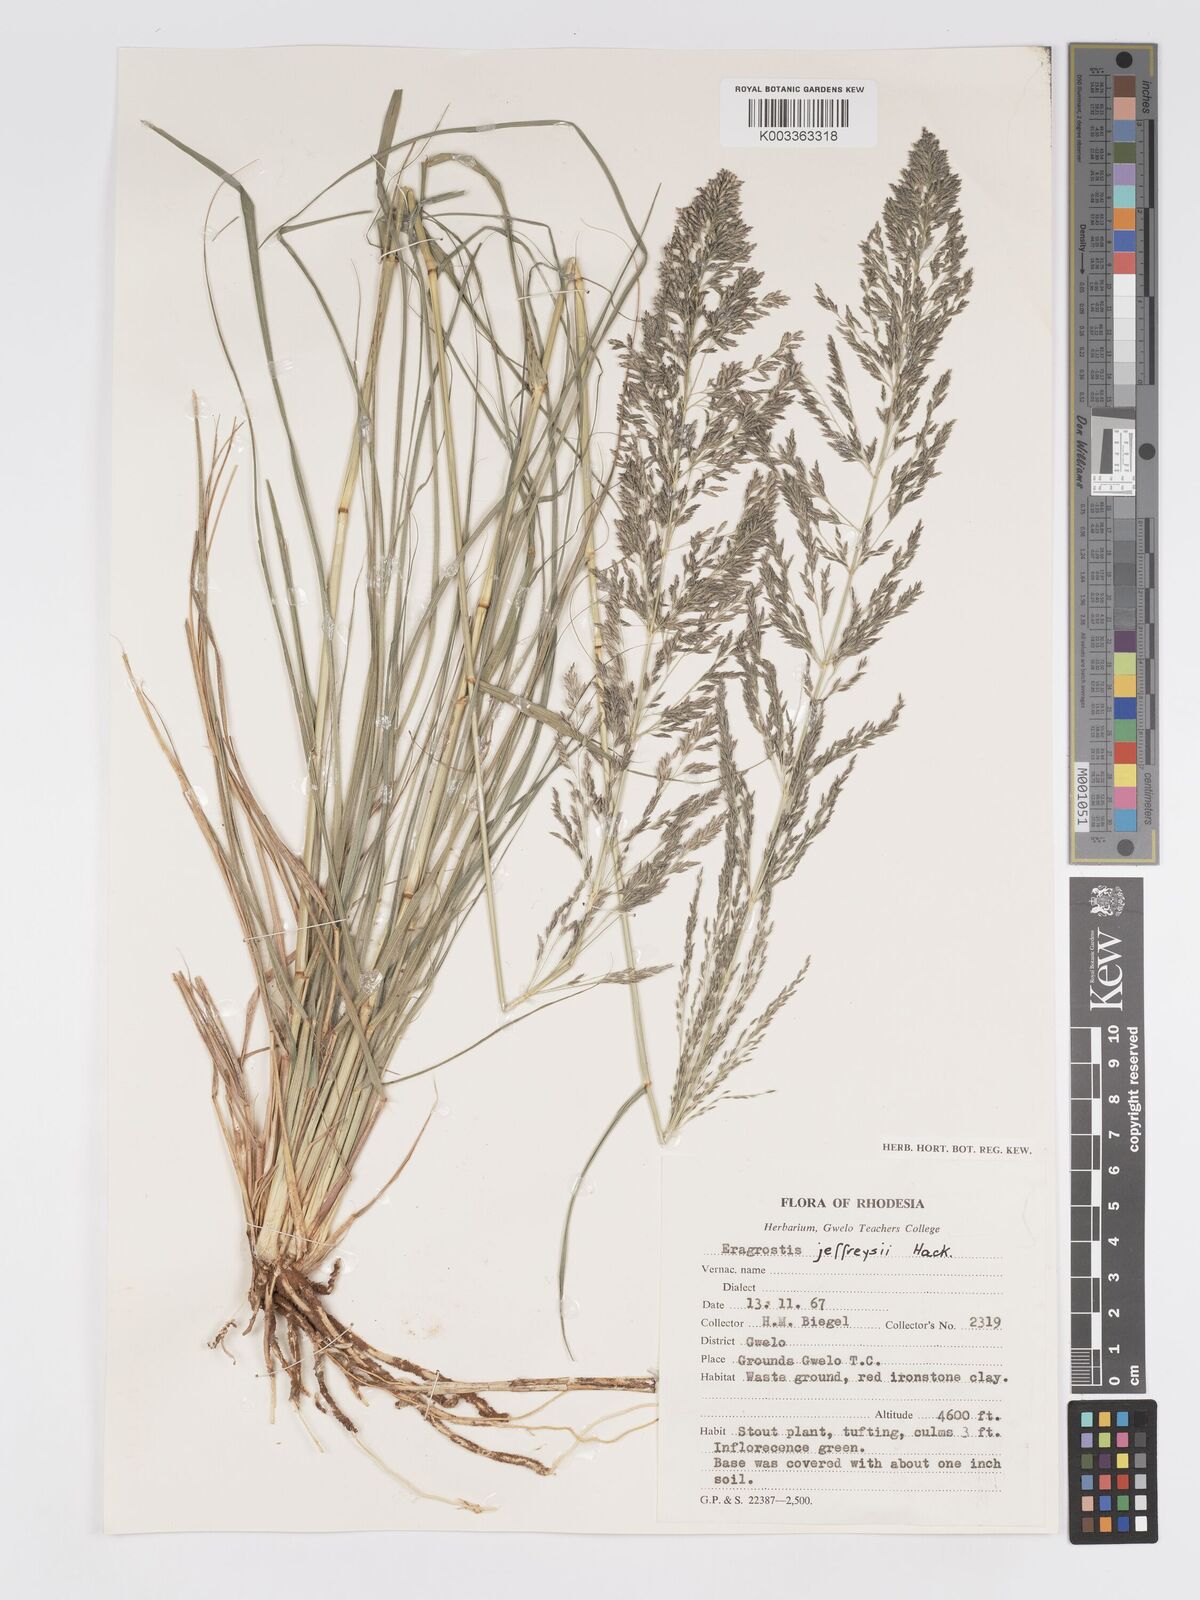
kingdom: Plantae
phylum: Tracheophyta
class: Liliopsida
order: Poales
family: Poaceae
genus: Eragrostis
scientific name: Eragrostis curvula
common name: African love-grass
